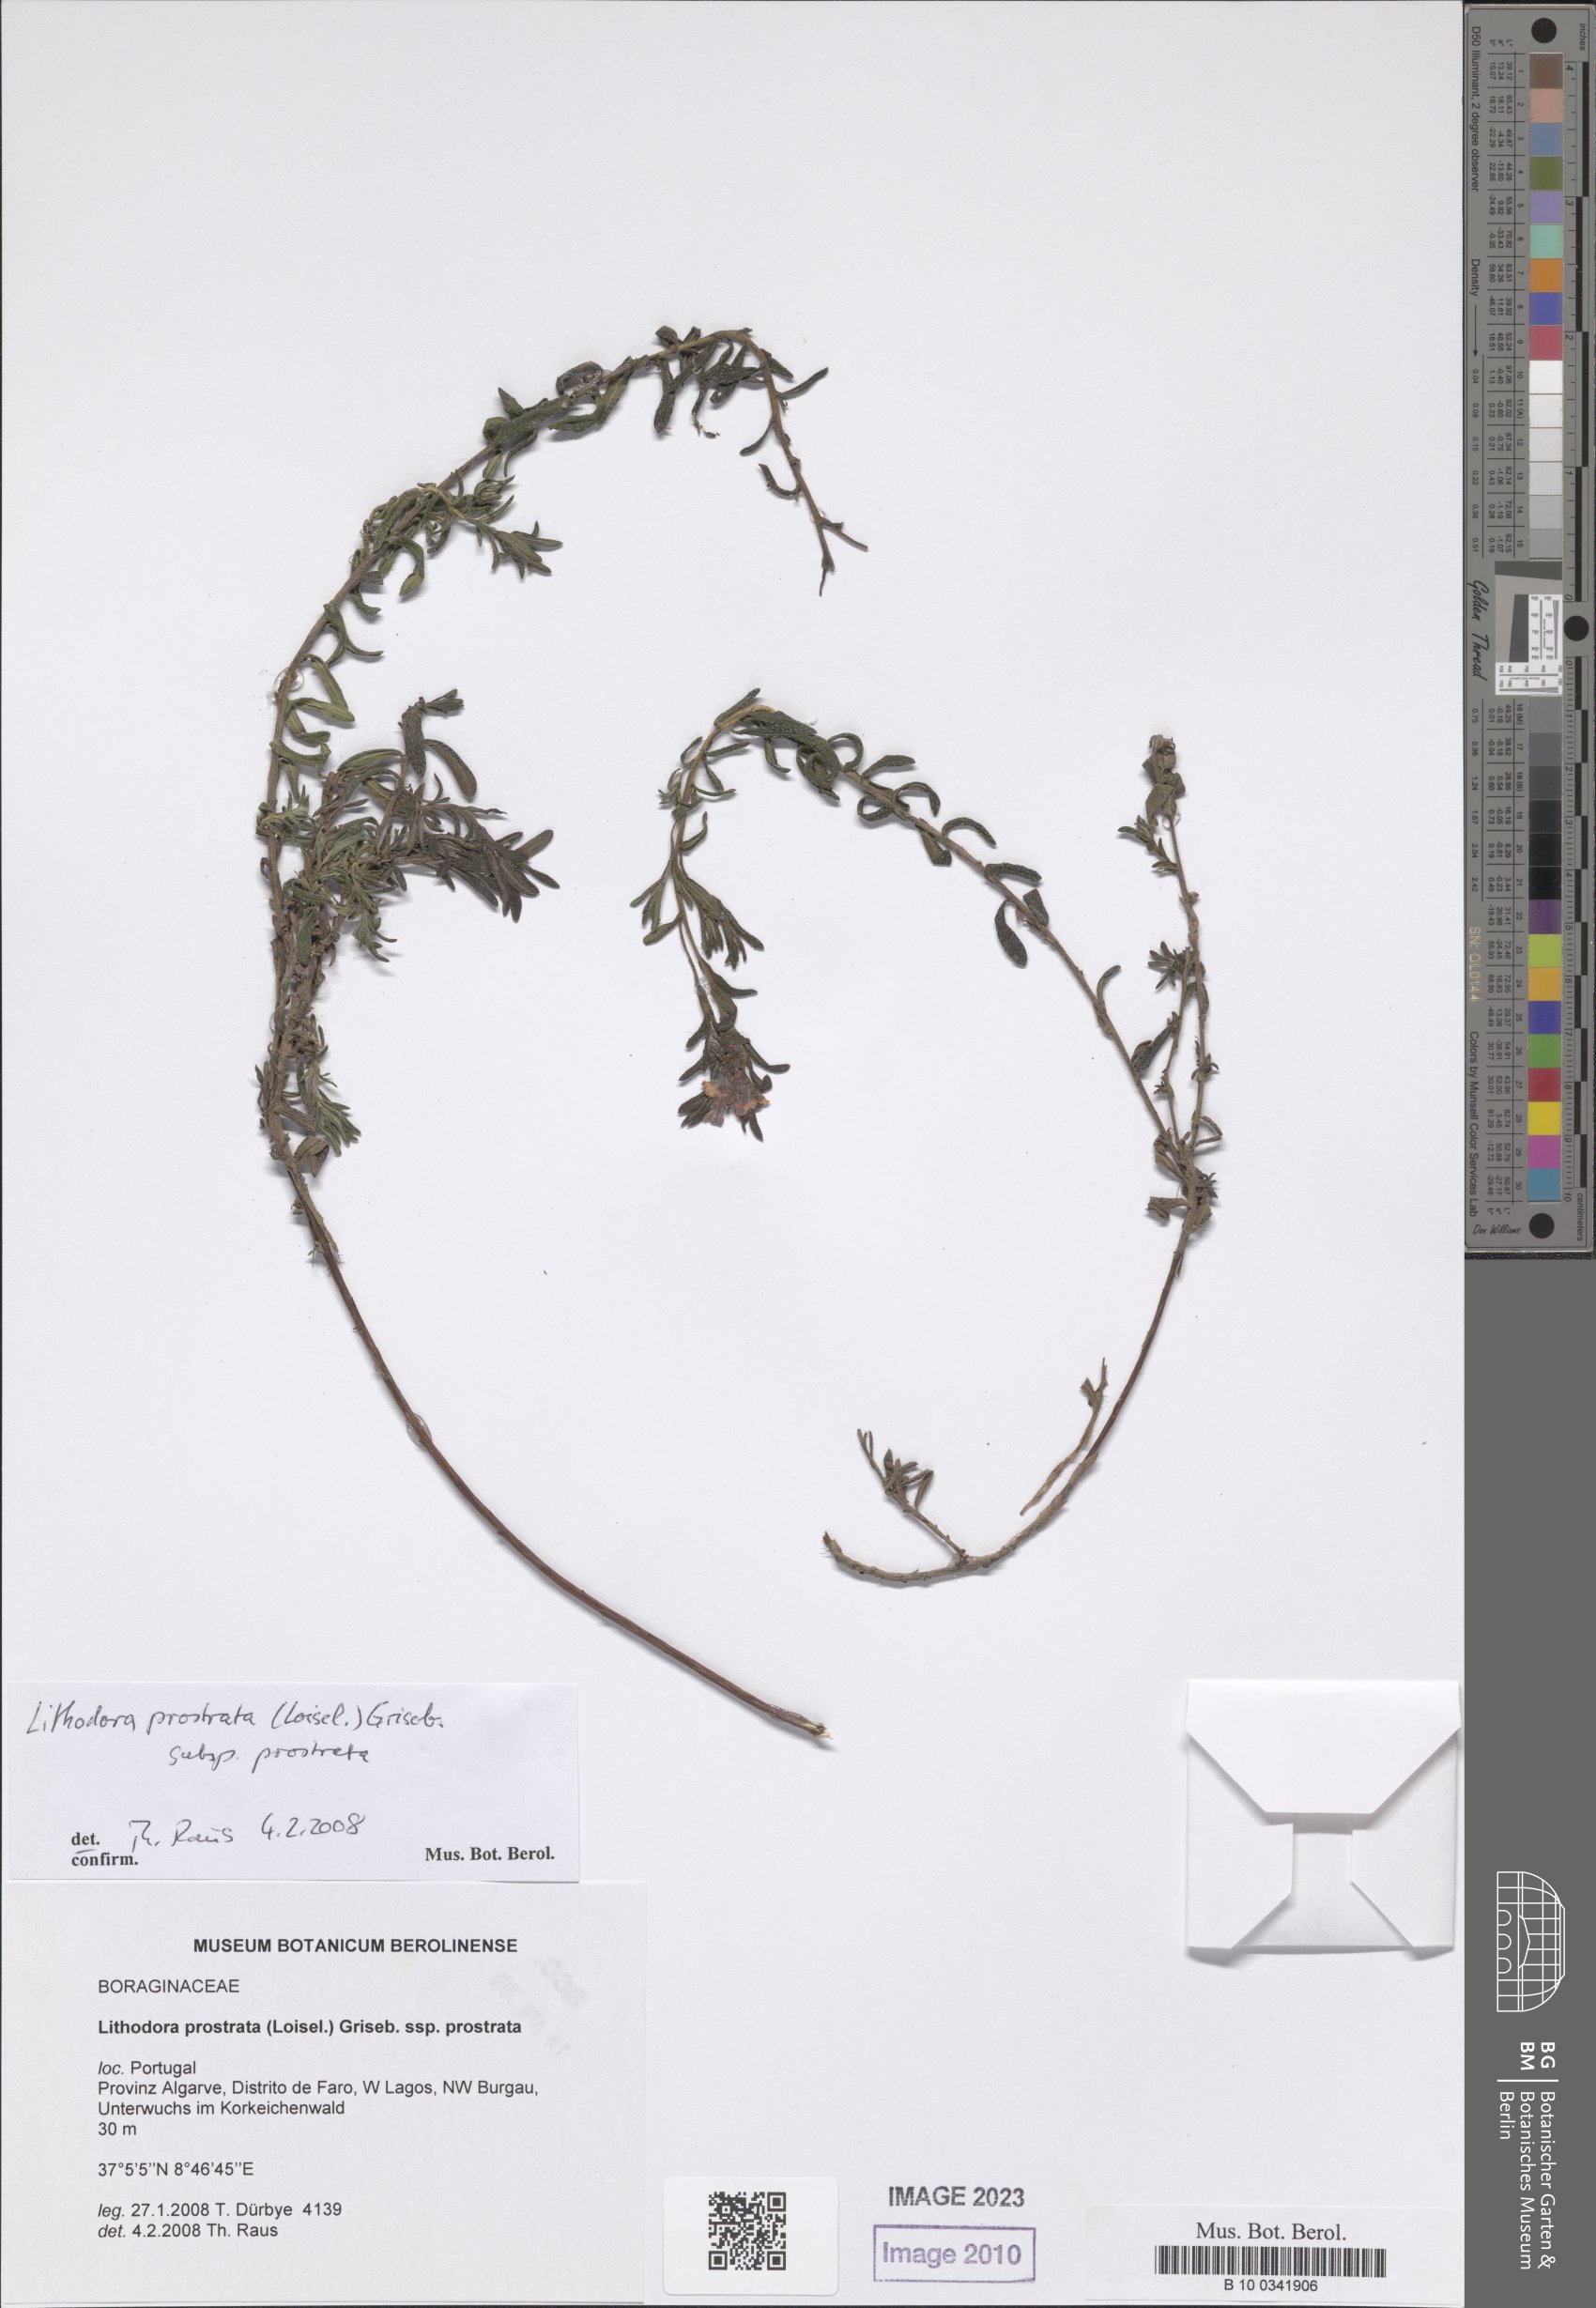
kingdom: Plantae
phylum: Tracheophyta
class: Magnoliopsida
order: Boraginales
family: Boraginaceae
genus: Glandora
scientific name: Glandora prostrata
